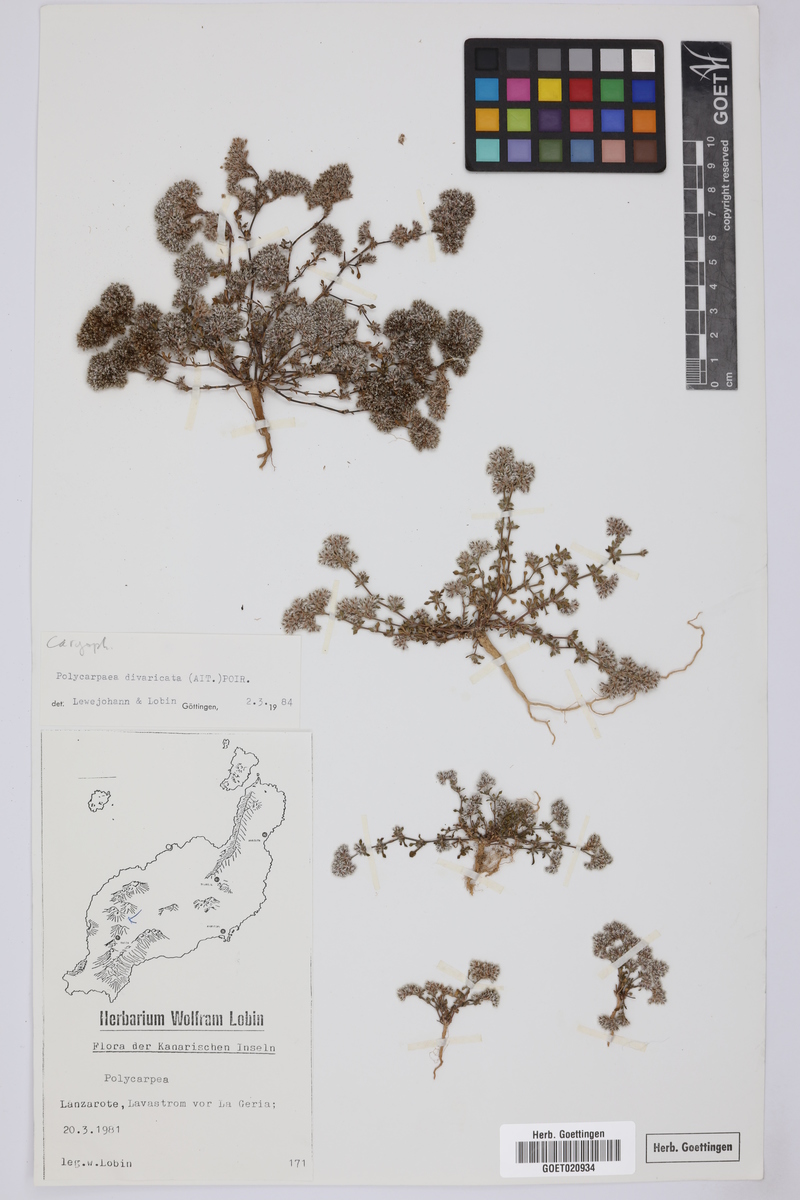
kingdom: Plantae
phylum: Tracheophyta
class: Magnoliopsida
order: Caryophyllales
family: Caryophyllaceae
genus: Polycarpaea
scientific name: Polycarpaea divaricata
